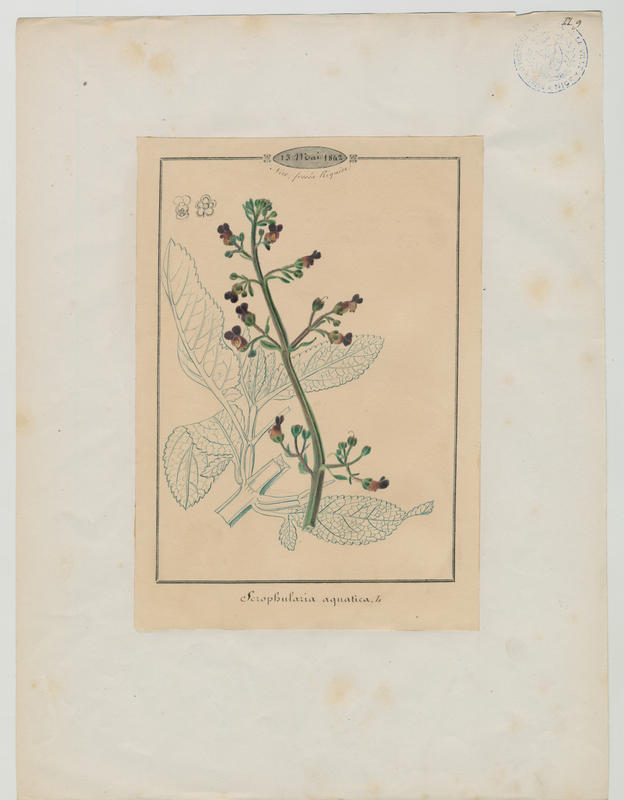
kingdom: Plantae
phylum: Tracheophyta
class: Magnoliopsida
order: Lamiales
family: Scrophulariaceae
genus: Scrophularia
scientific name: Scrophularia umbrosa
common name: Green figwort
